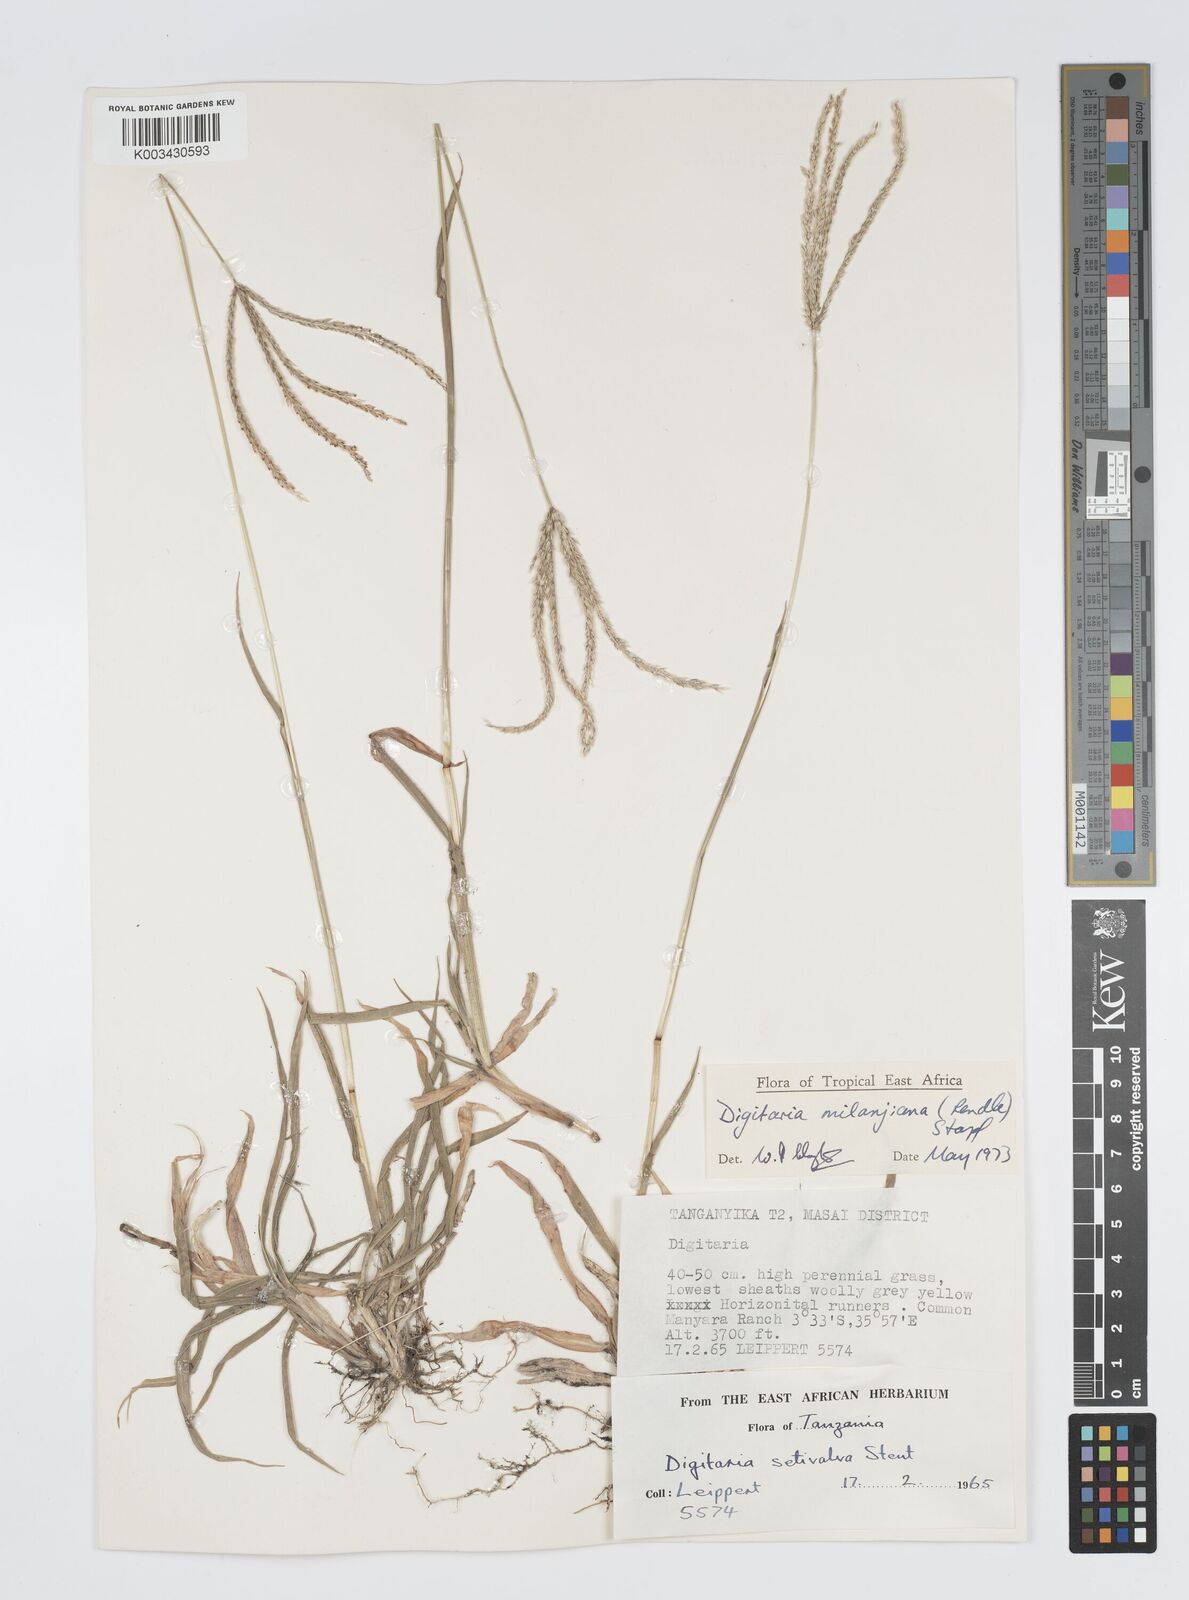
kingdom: Plantae
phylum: Tracheophyta
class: Liliopsida
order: Poales
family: Poaceae
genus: Digitaria
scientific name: Digitaria milanjiana
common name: Madagascar crabgrass
